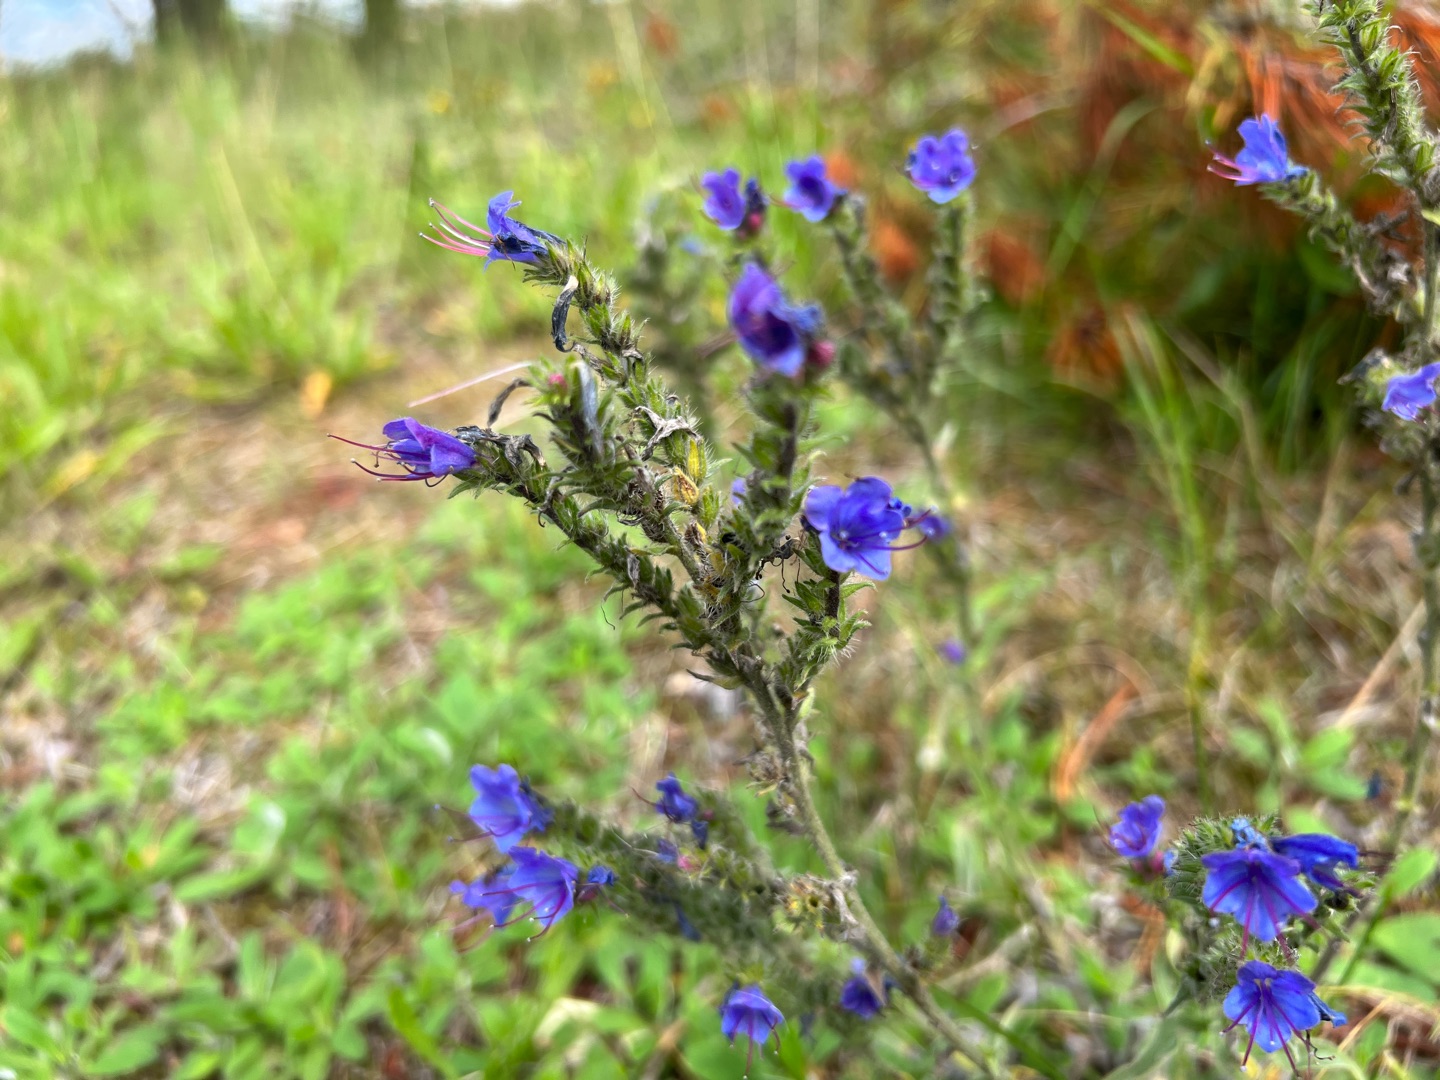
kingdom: Plantae
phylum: Tracheophyta
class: Magnoliopsida
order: Boraginales
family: Boraginaceae
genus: Echium
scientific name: Echium vulgare
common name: Slangehoved
